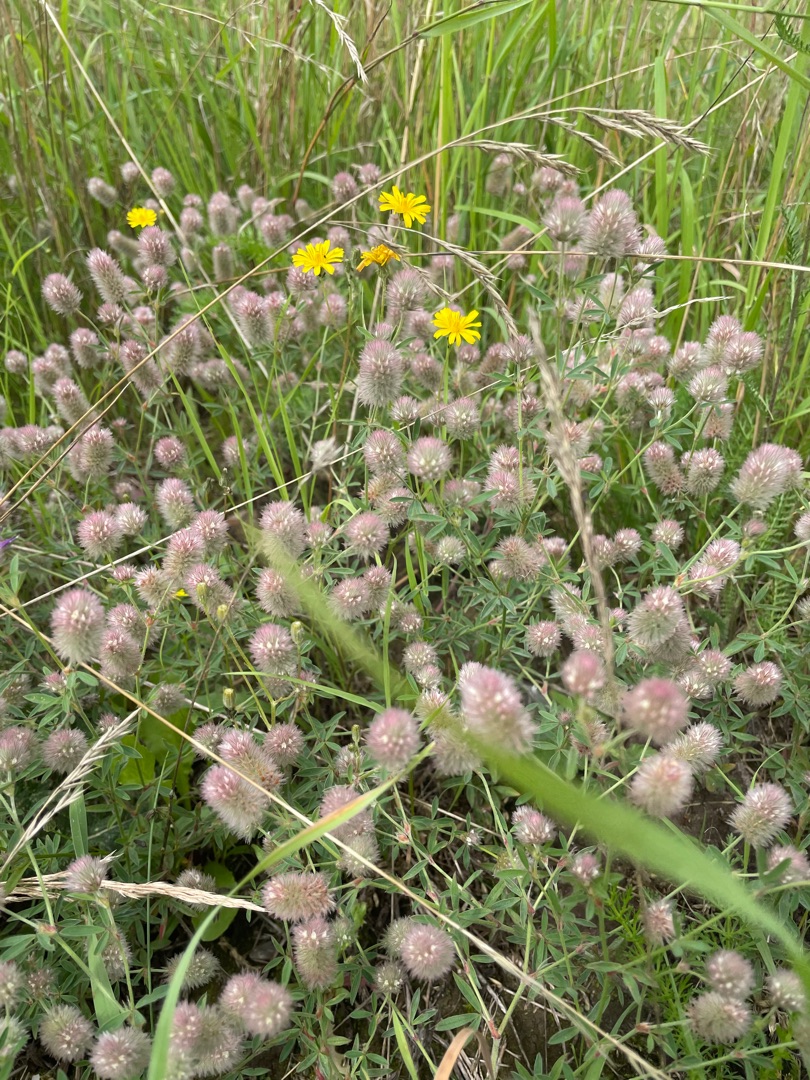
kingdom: Plantae
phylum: Tracheophyta
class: Magnoliopsida
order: Fabales
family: Fabaceae
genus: Trifolium
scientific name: Trifolium arvense
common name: Hare-kløver
